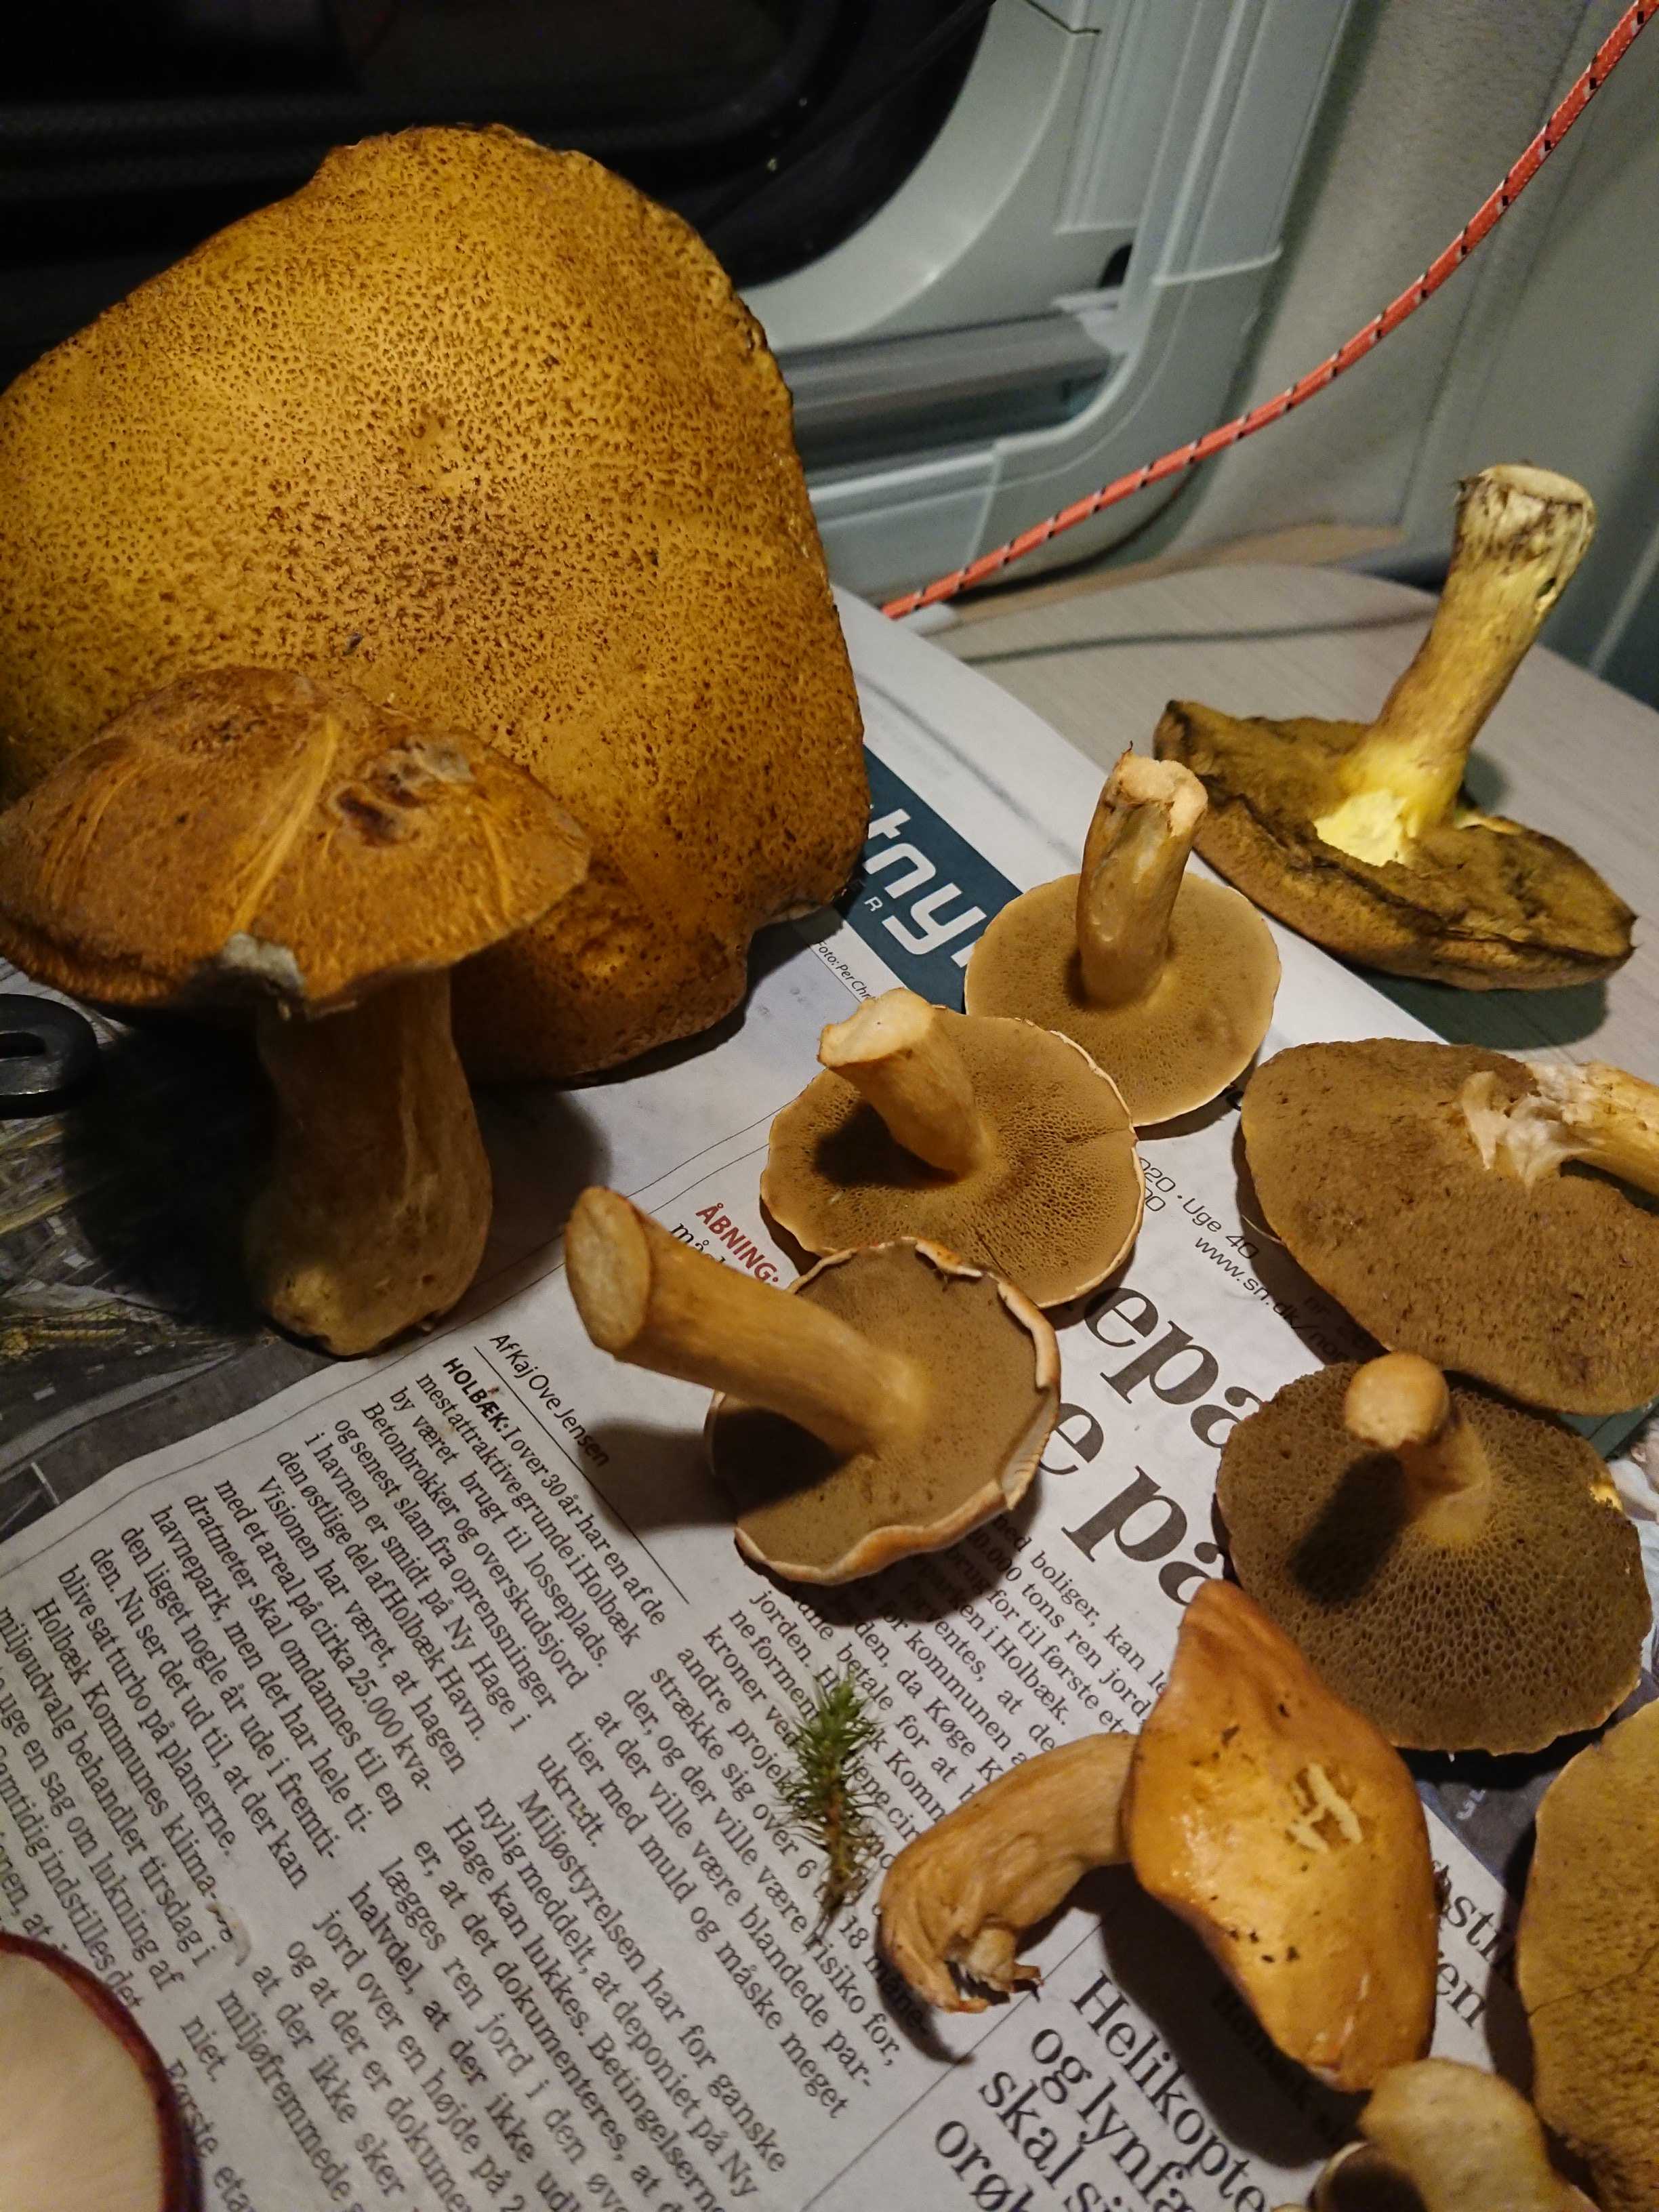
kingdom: Fungi
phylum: Basidiomycota
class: Agaricomycetes
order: Boletales
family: Suillaceae
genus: Suillus
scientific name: Suillus variegatus
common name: broget slimrørhat
